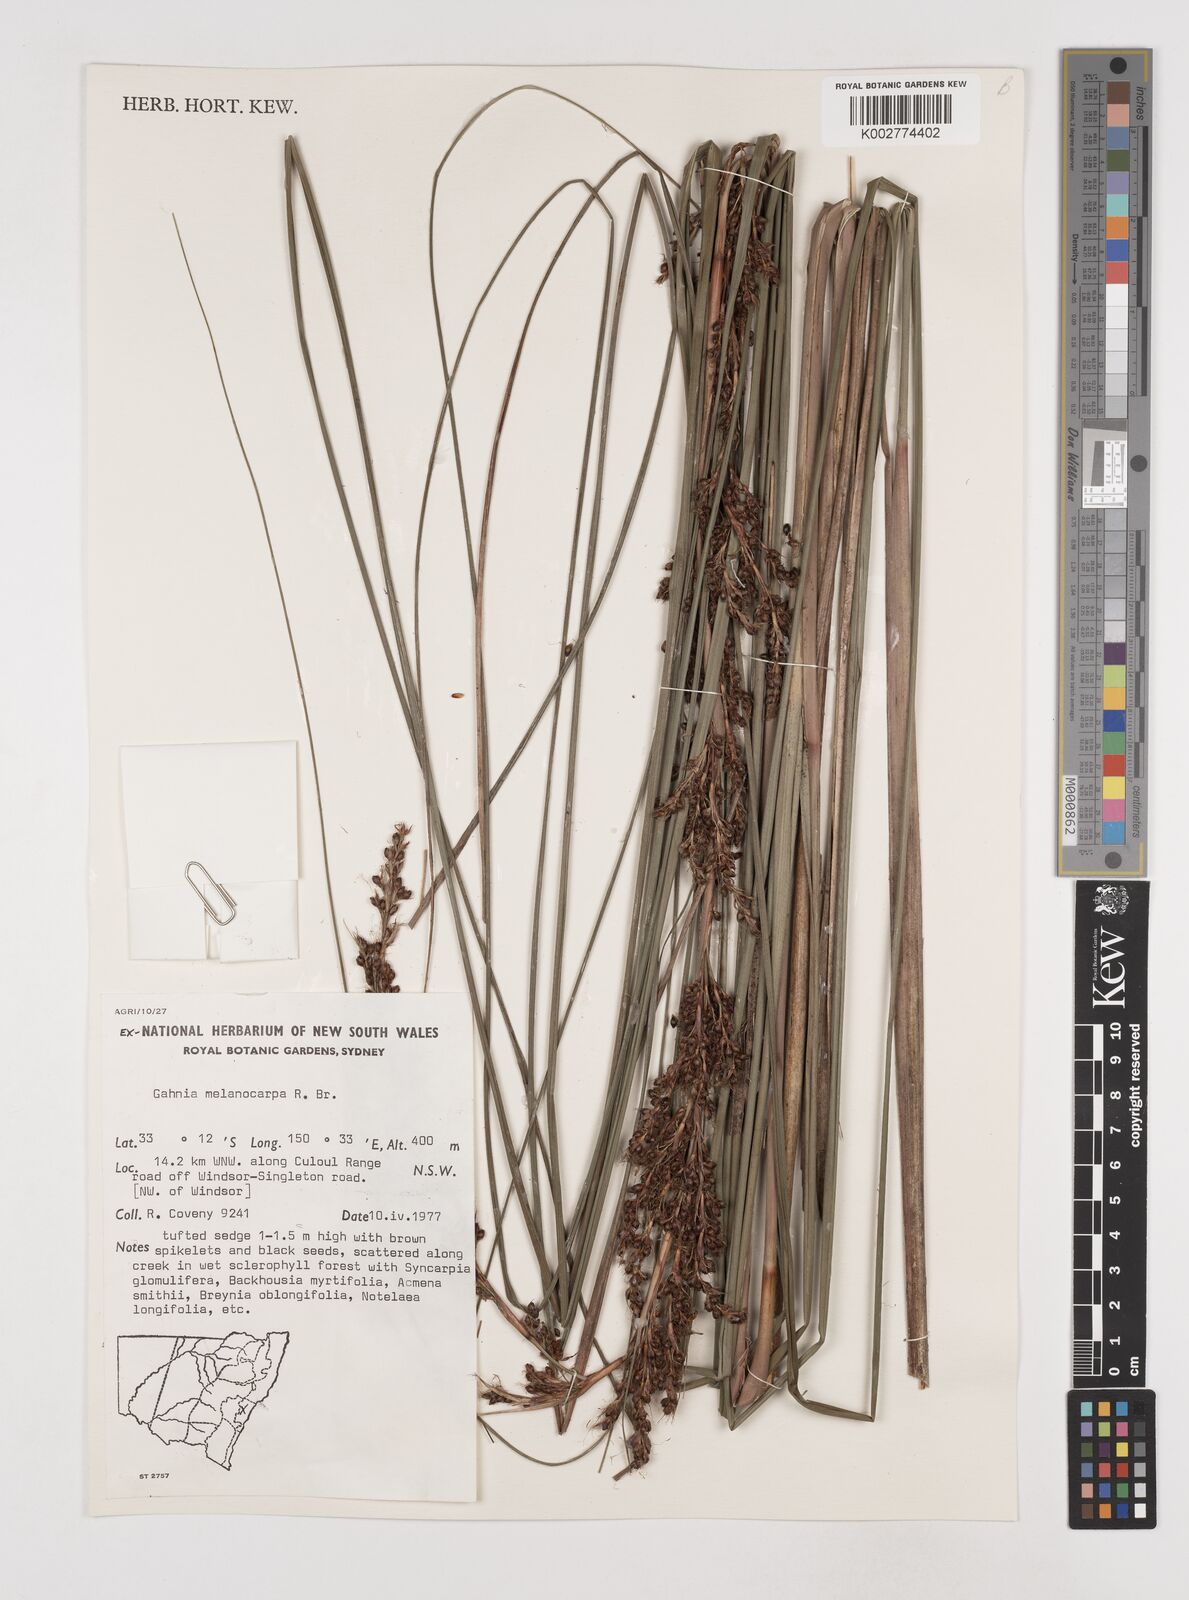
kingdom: Plantae
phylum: Tracheophyta
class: Liliopsida
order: Poales
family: Cyperaceae
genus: Gahnia
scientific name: Gahnia melanocarpa
